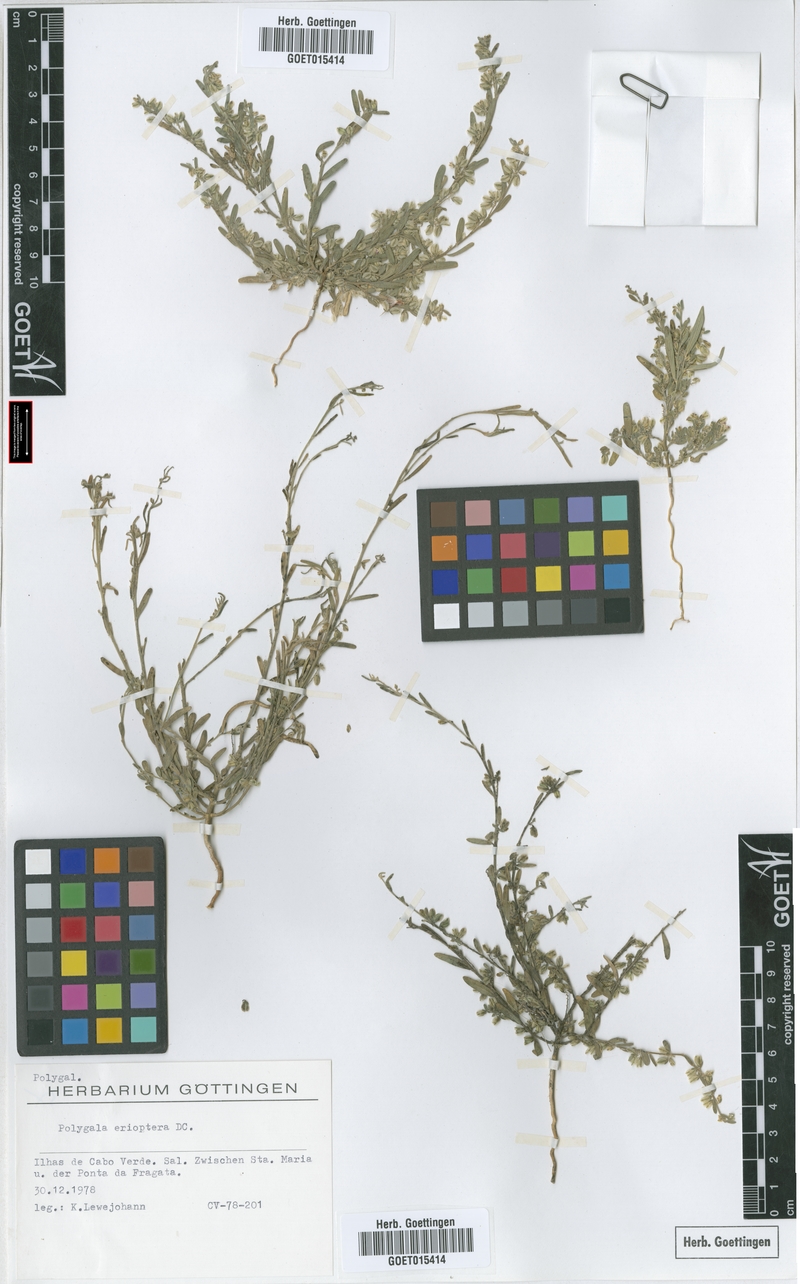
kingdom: Plantae
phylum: Tracheophyta
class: Magnoliopsida
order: Fabales
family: Polygalaceae
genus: Polygala
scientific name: Polygala erioptera
